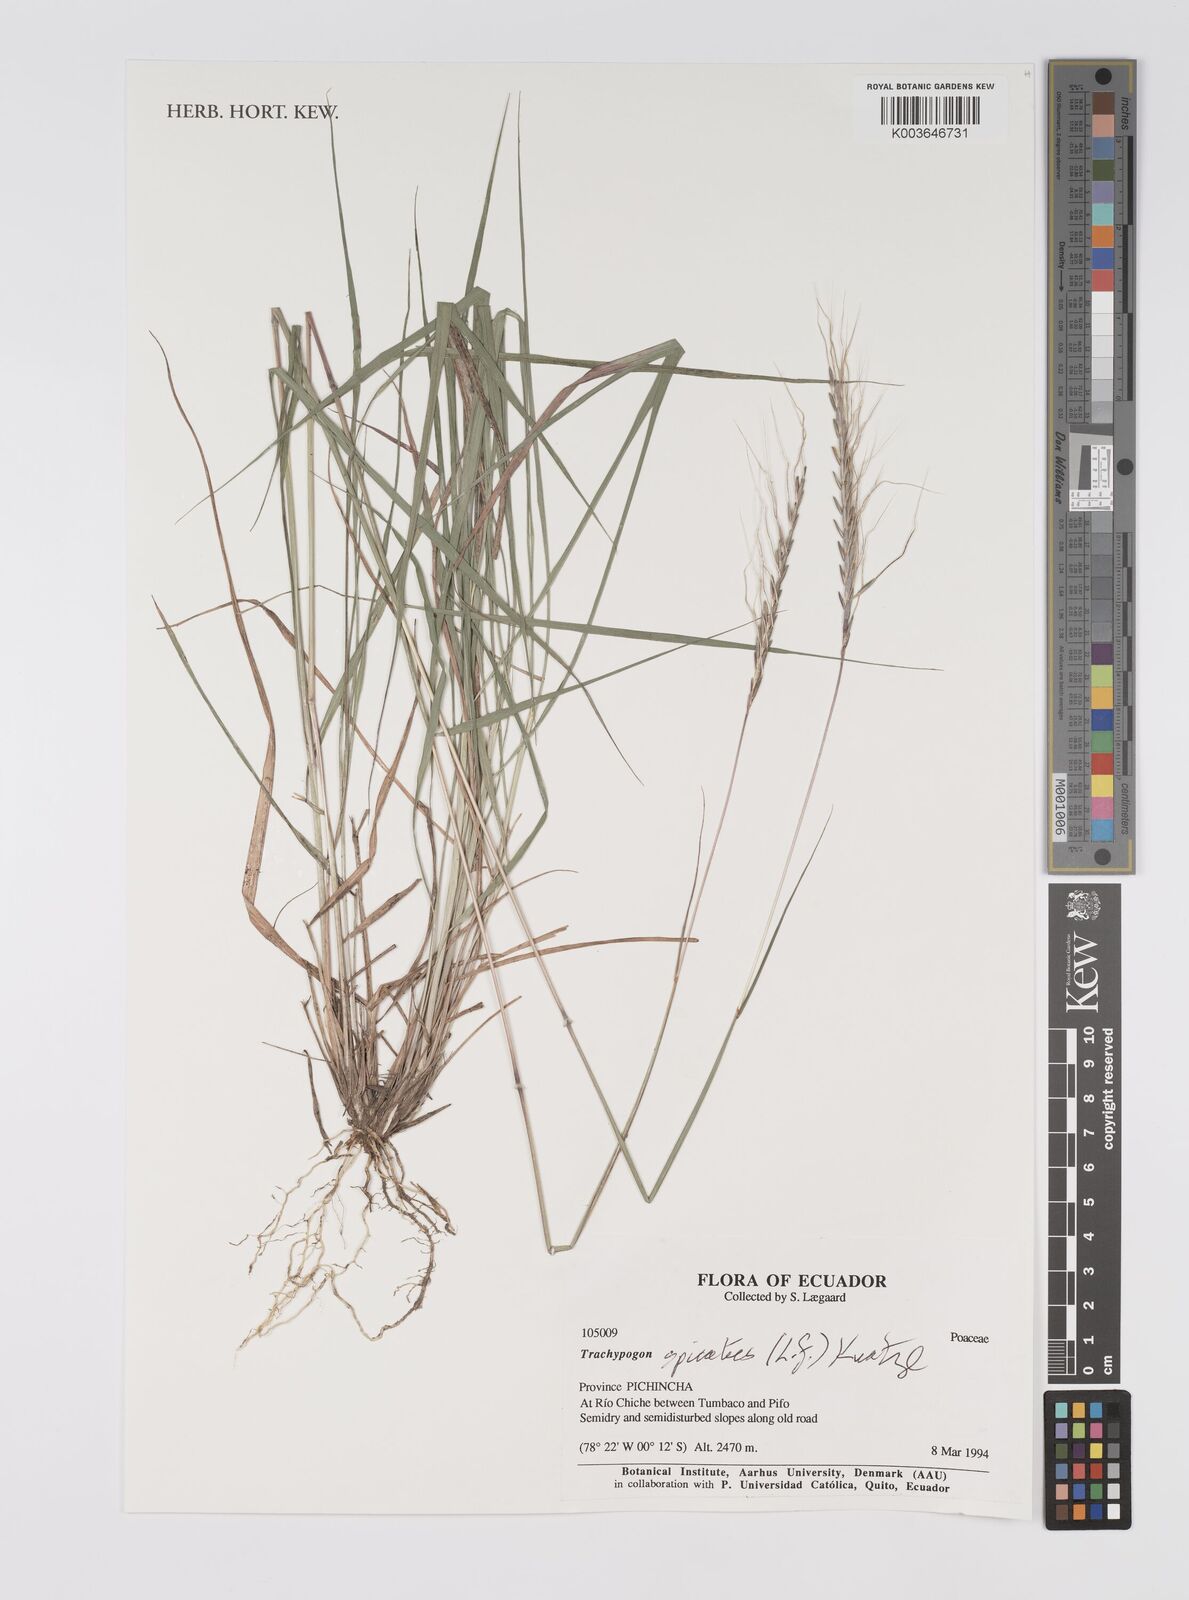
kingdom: Plantae
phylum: Tracheophyta
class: Liliopsida
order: Poales
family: Poaceae
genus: Trachypogon
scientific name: Trachypogon spicatus
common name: Crinkle-awn
